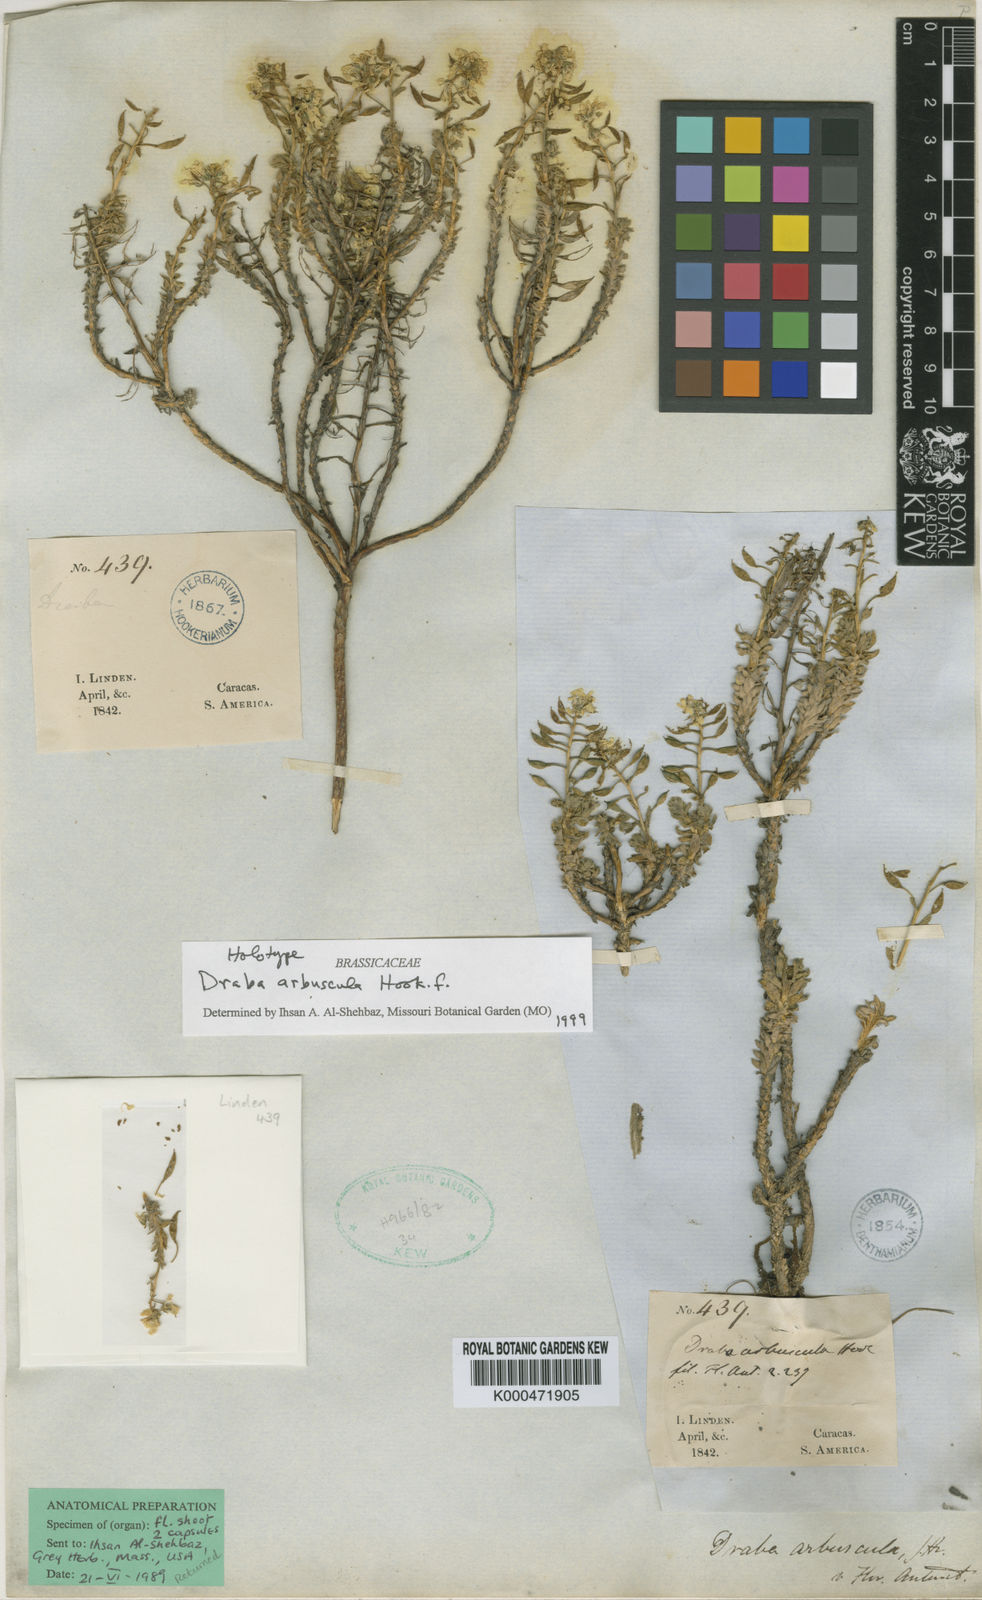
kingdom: Plantae
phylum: Tracheophyta
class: Magnoliopsida
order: Brassicales
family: Brassicaceae
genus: Draba
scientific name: Draba arbuscula
